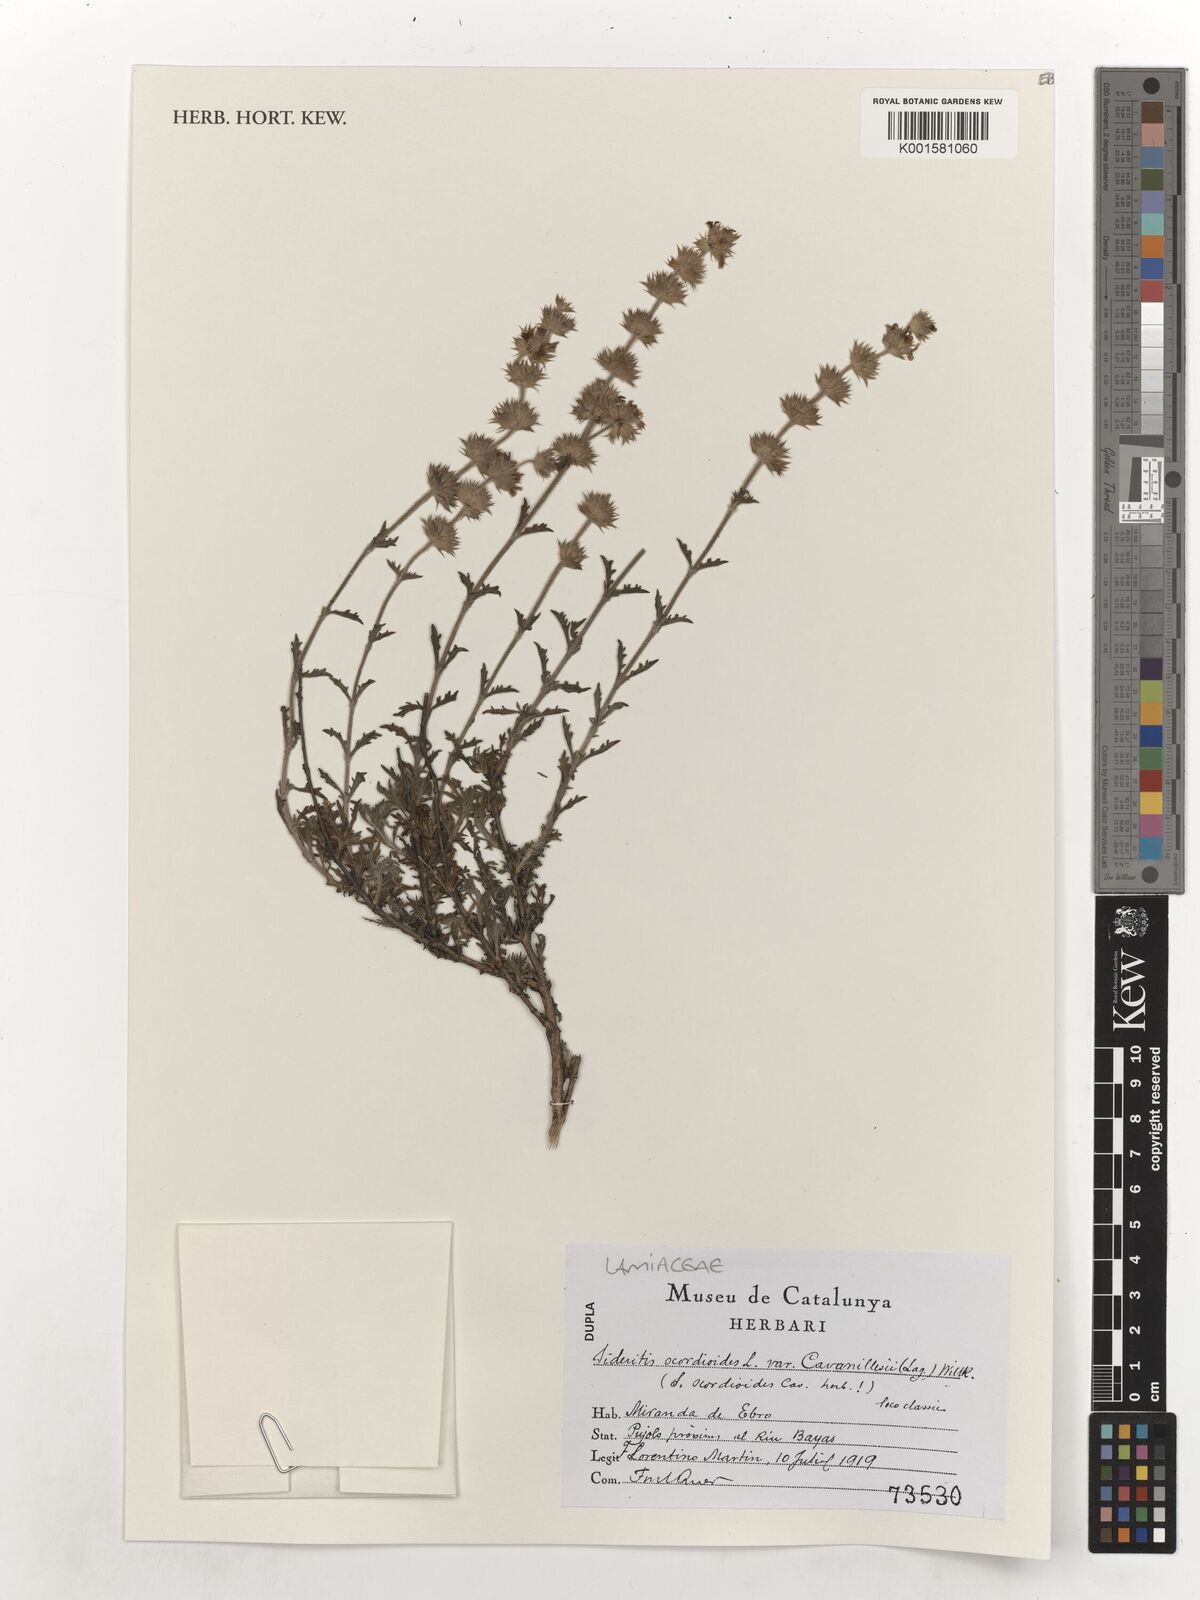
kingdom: Plantae
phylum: Tracheophyta
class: Magnoliopsida
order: Lamiales
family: Lamiaceae
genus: Sideritis
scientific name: Sideritis hyssopifolia
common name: Mountain tea
